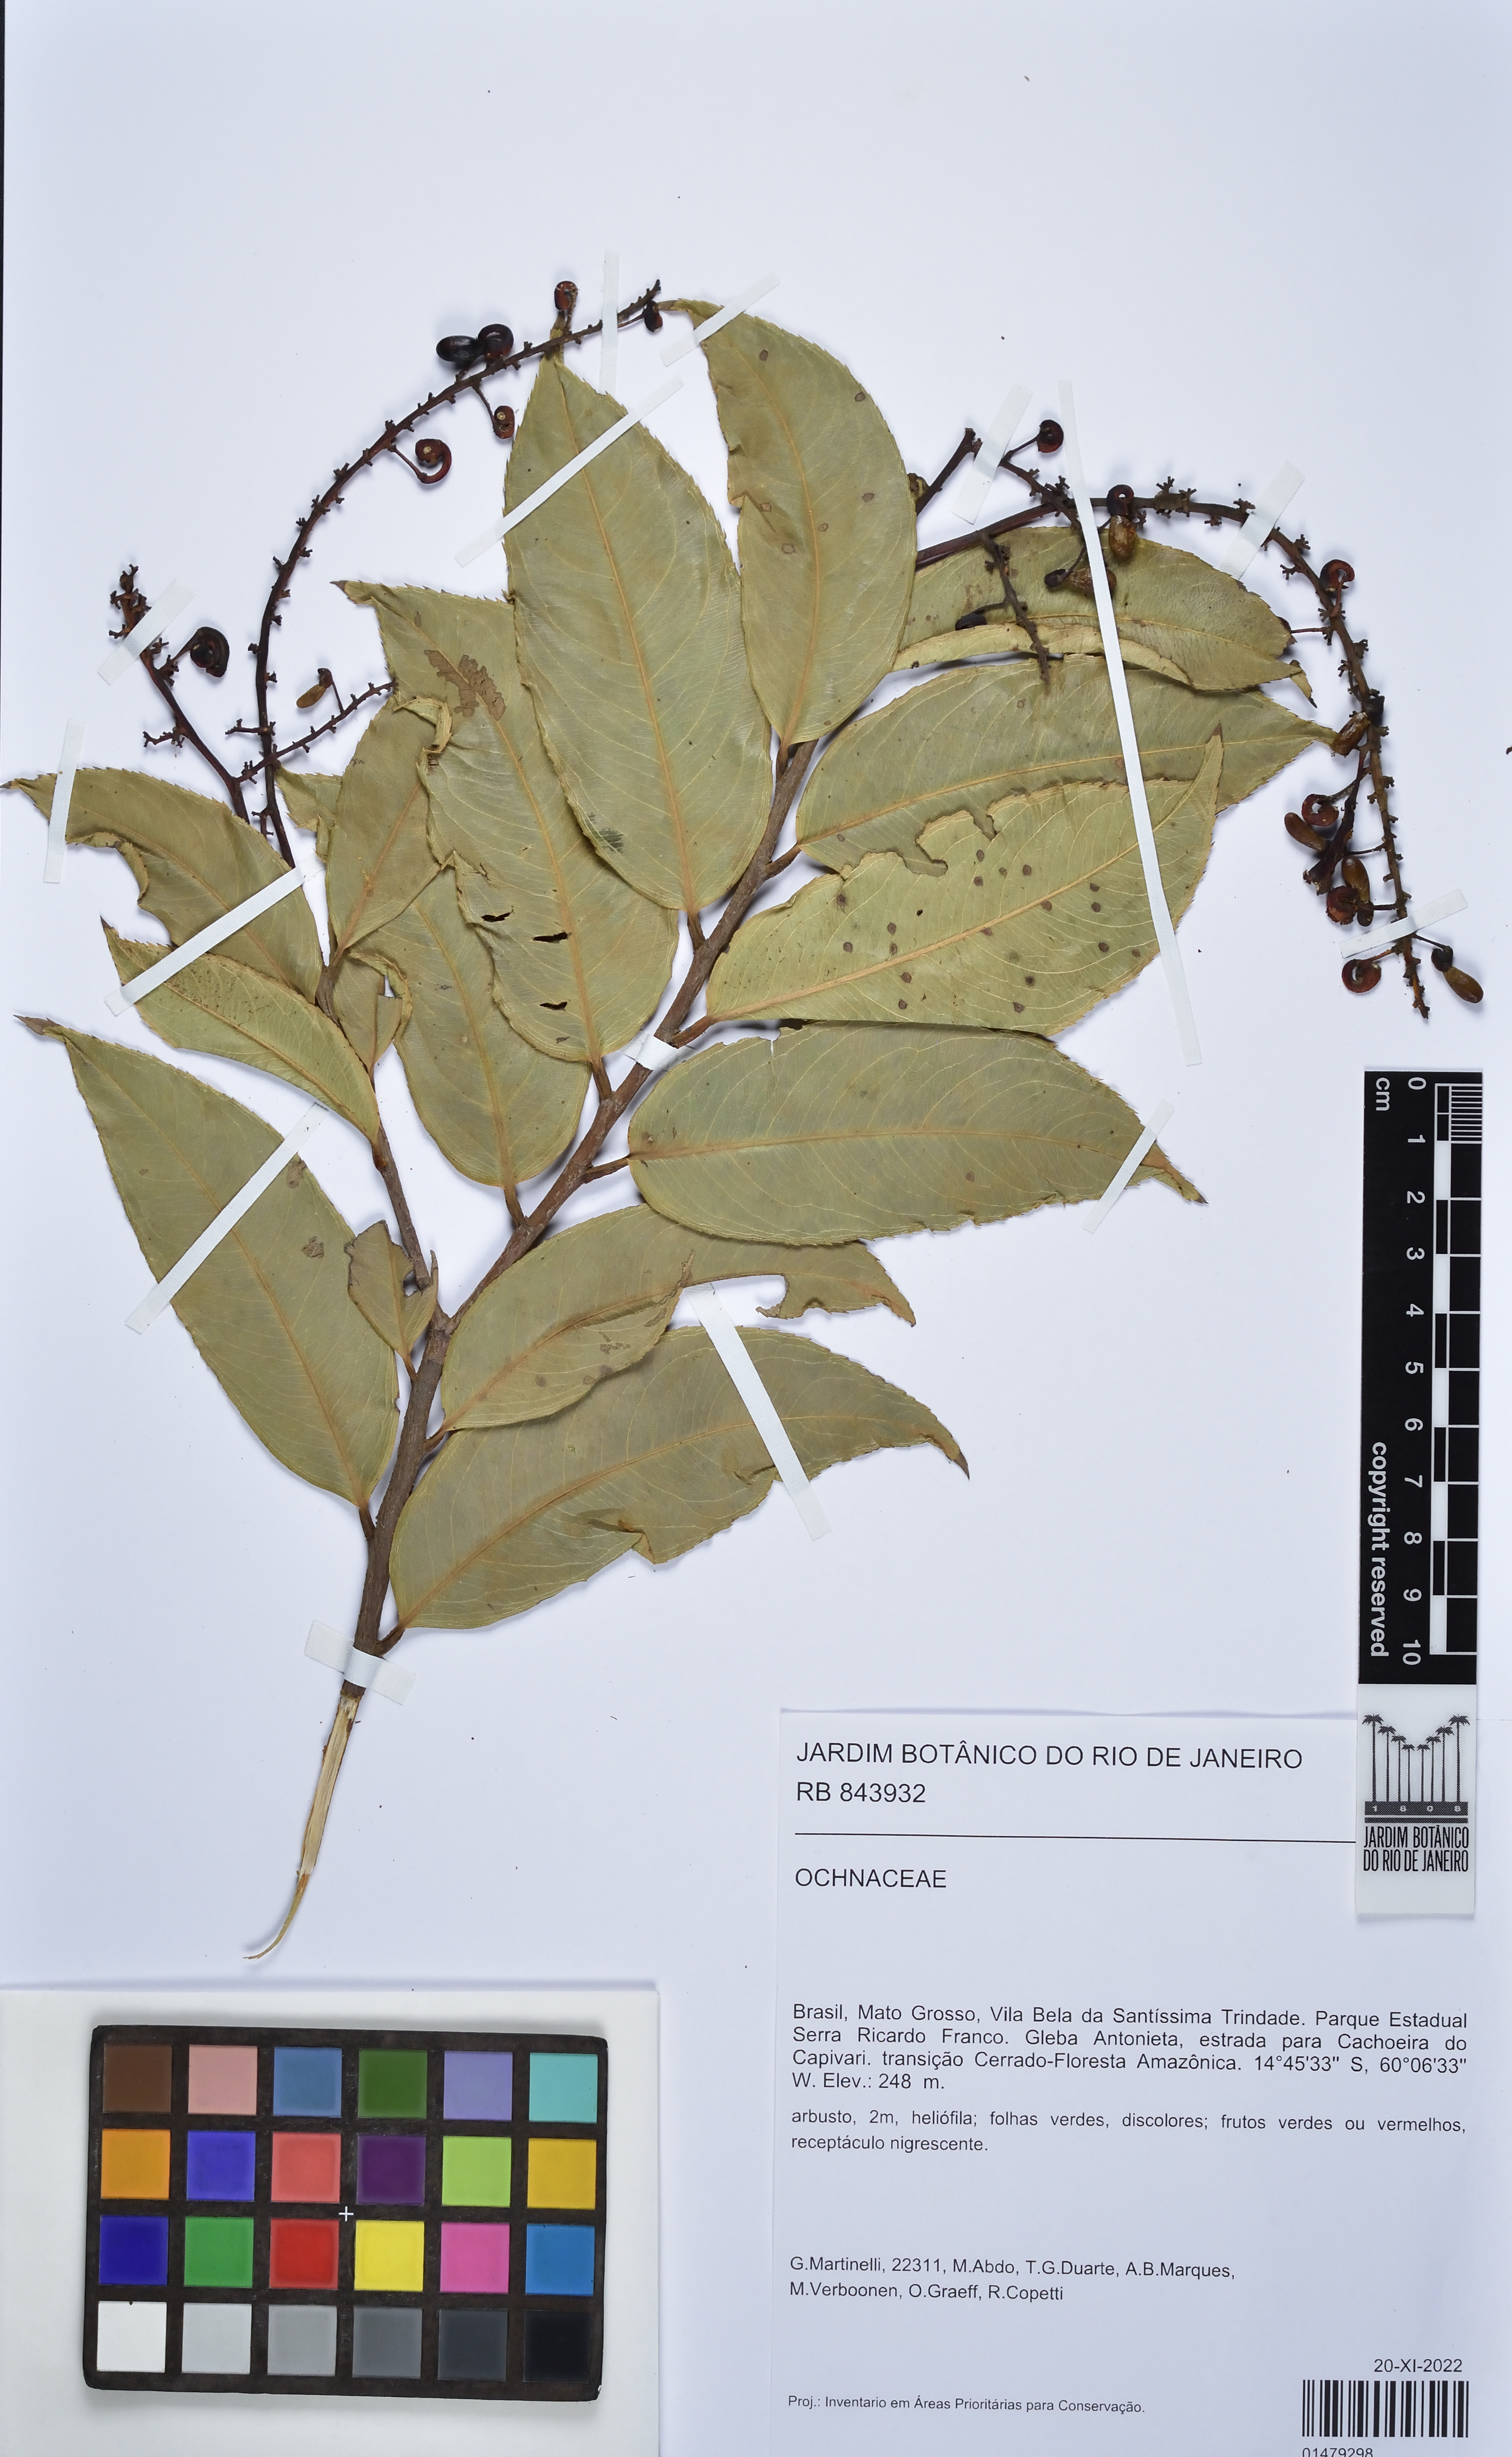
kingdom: Plantae
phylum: Tracheophyta
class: Magnoliopsida
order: Malpighiales
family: Ochnaceae
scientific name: Ochnaceae
